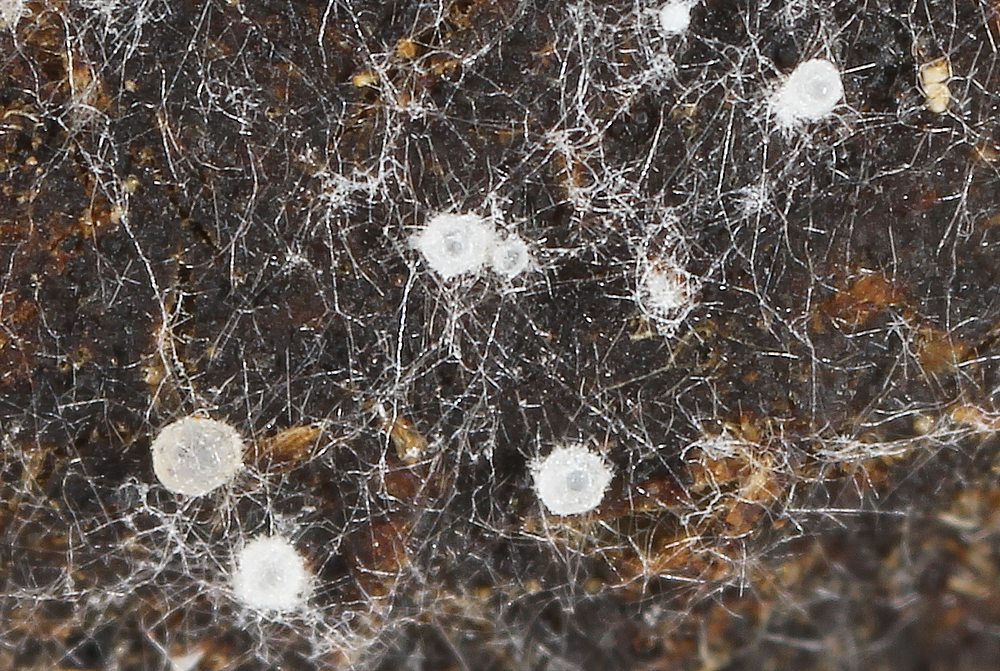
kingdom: Fungi
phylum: Ascomycota
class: Pezizomycetes
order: Pezizales
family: Ascobolaceae
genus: Ascobolus
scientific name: Ascobolus albidus
